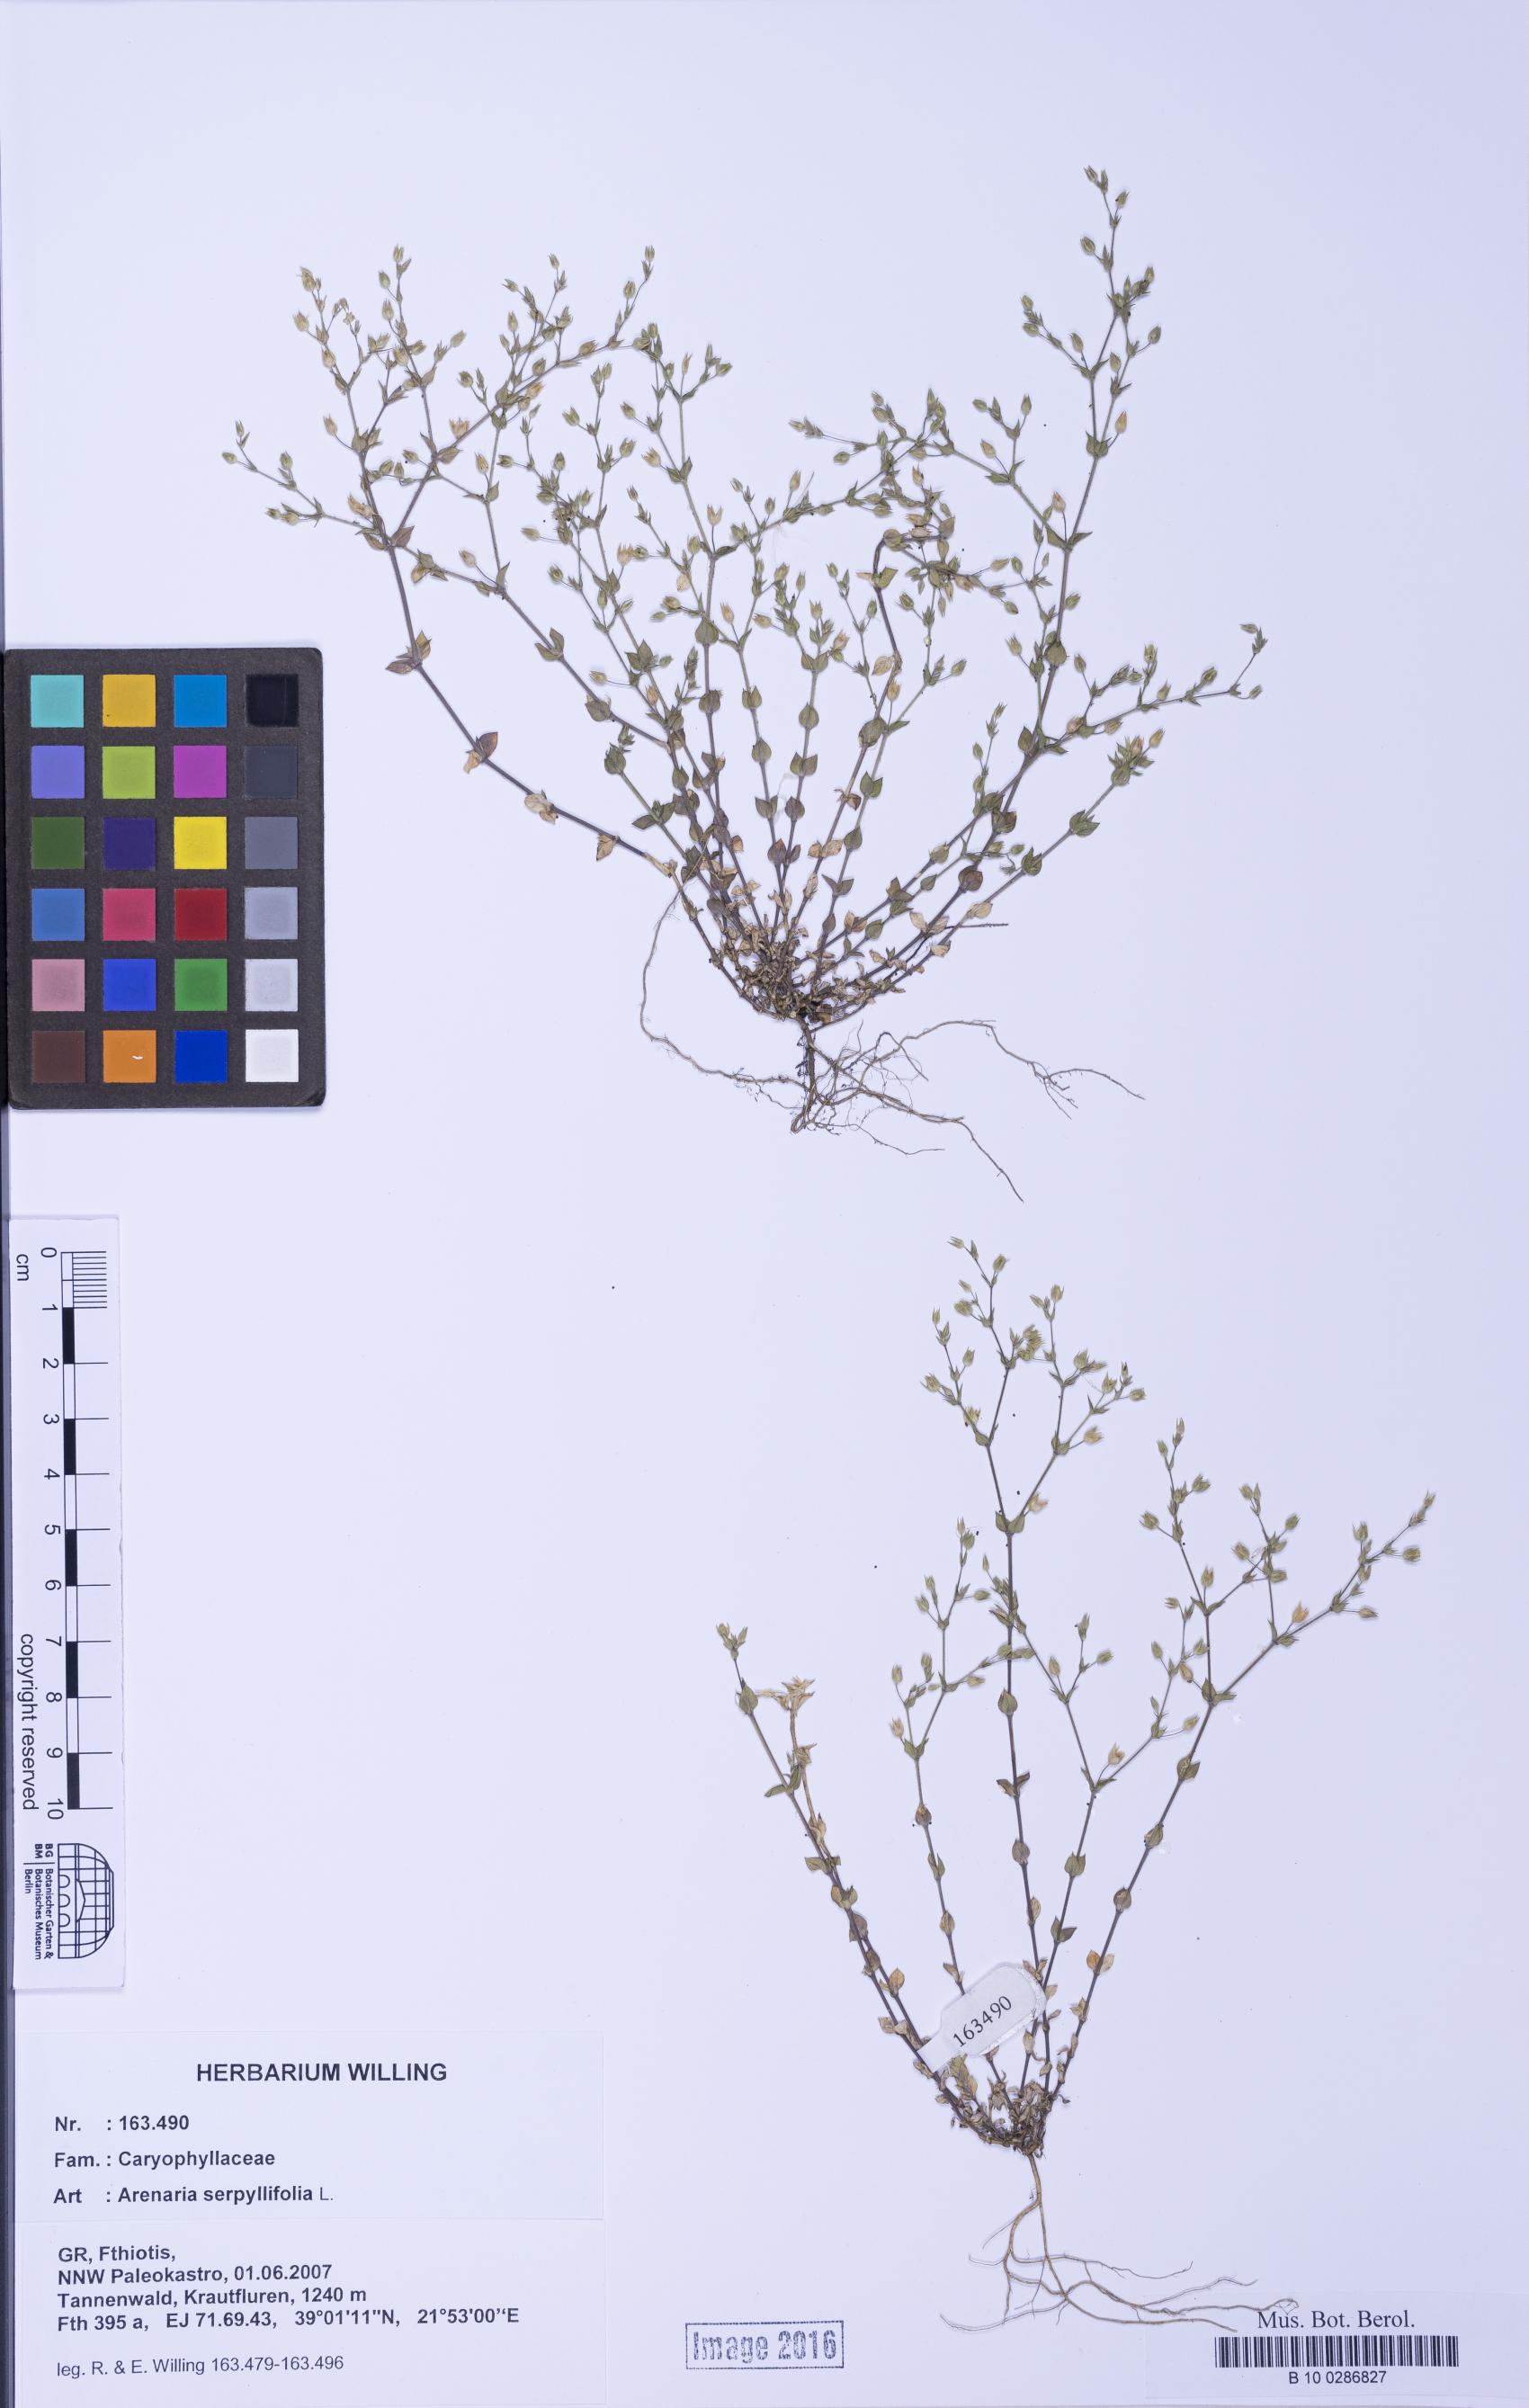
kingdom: Plantae
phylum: Tracheophyta
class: Magnoliopsida
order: Caryophyllales
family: Caryophyllaceae
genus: Arenaria
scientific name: Arenaria serpyllifolia
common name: Thyme-leaved sandwort
